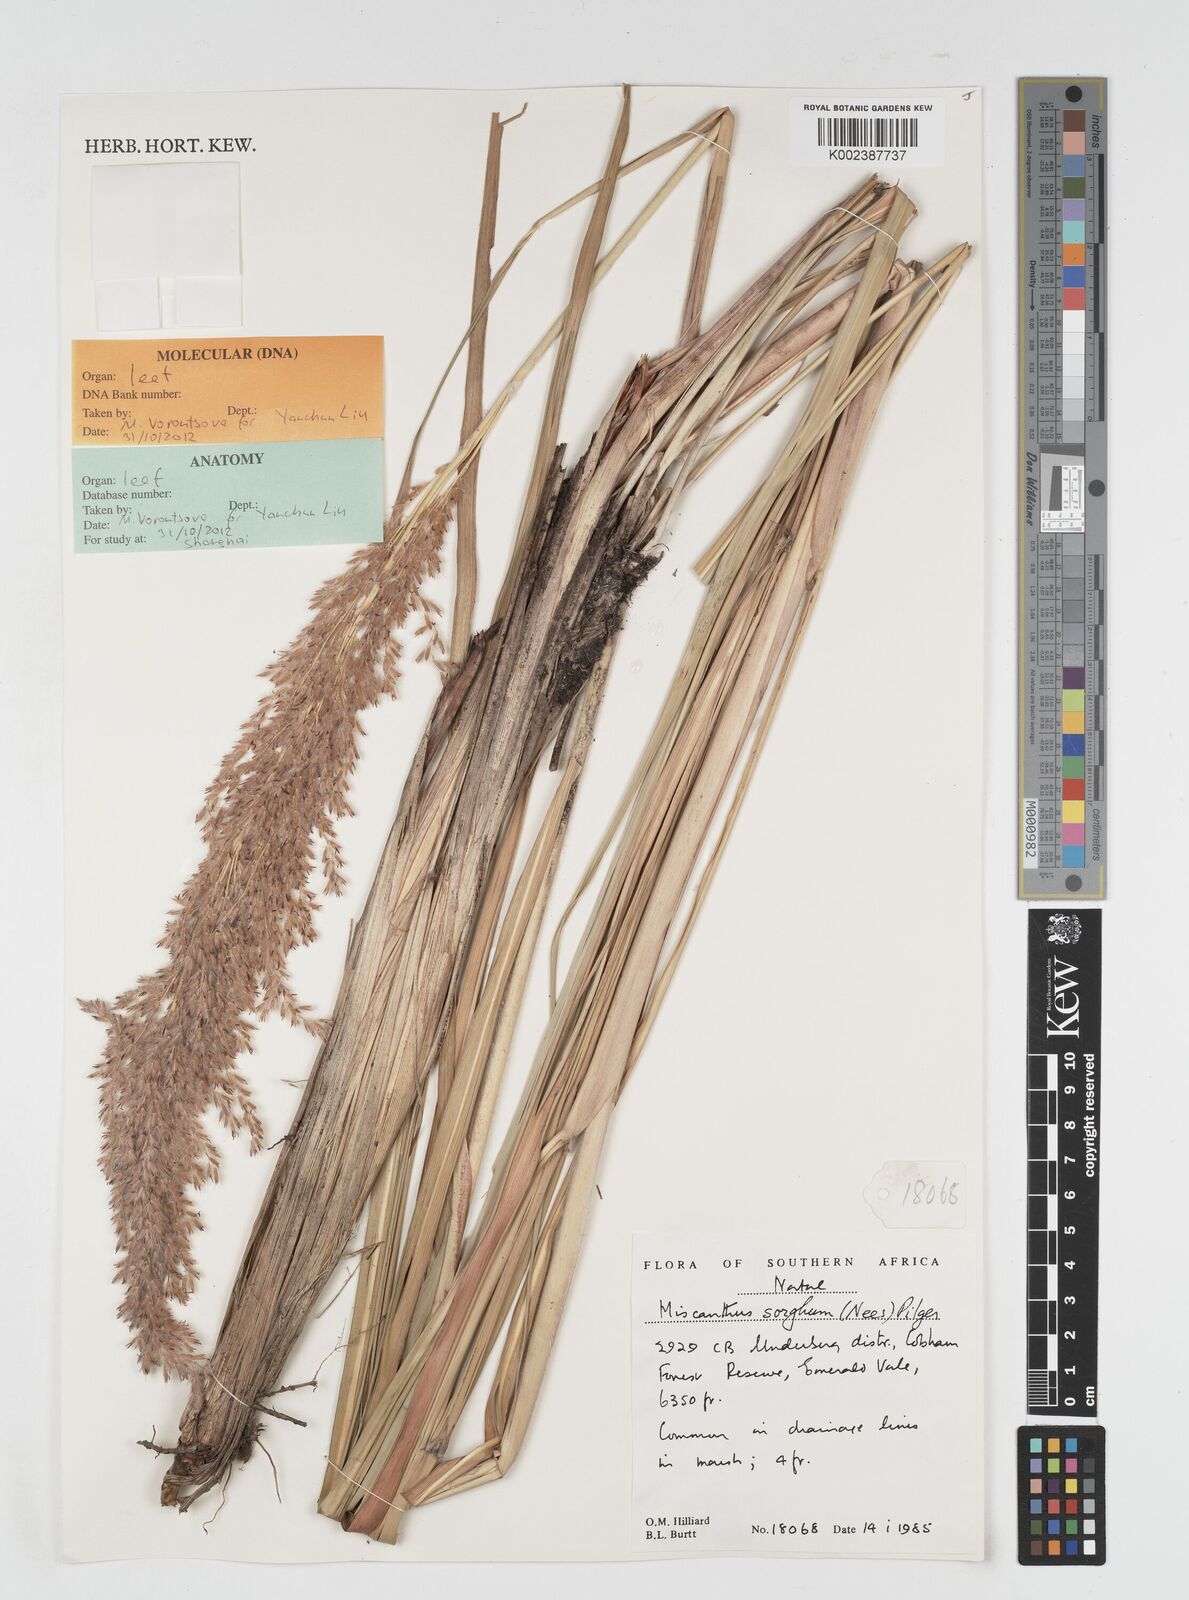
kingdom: Plantae
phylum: Tracheophyta
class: Liliopsida
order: Poales
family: Poaceae
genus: Miscanthus
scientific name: Miscanthus ecklonii
